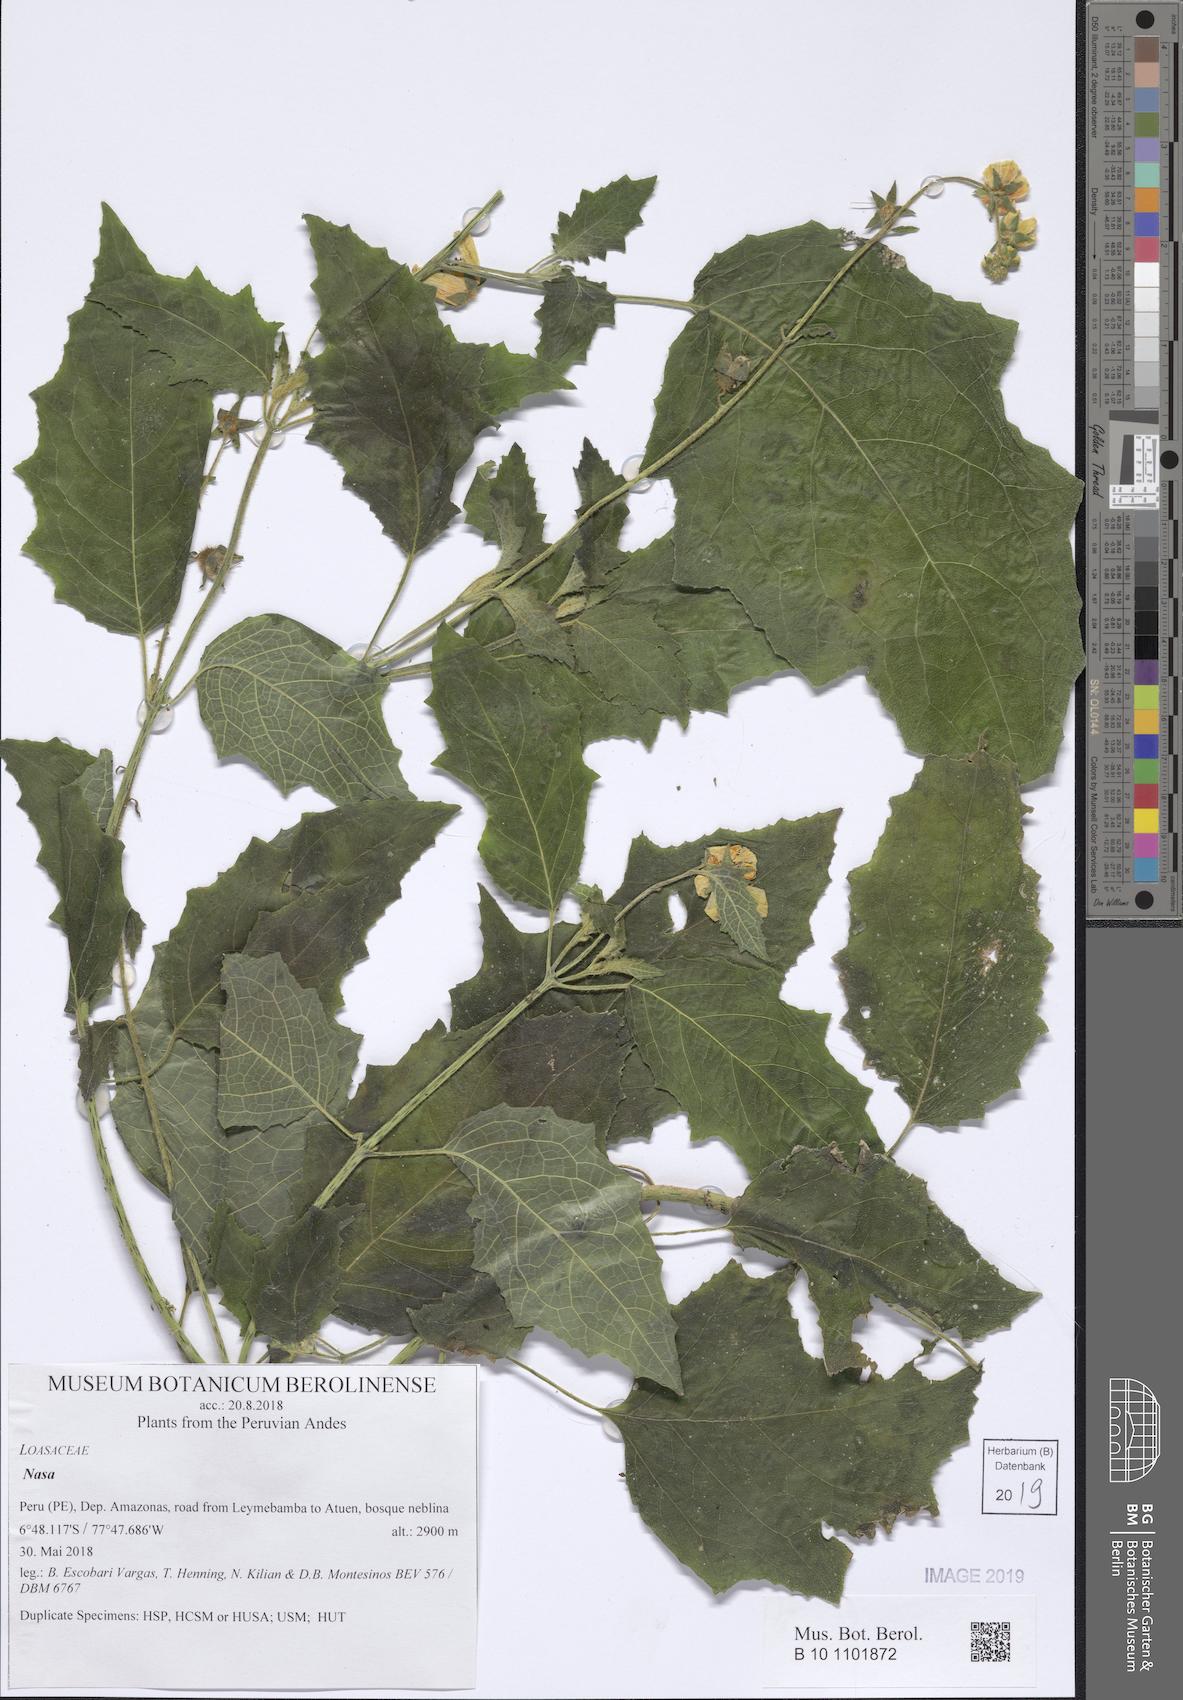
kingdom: Plantae
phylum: Tracheophyta
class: Magnoliopsida
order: Cornales
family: Loasaceae
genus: Nasa
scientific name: Nasa nubicolorum
